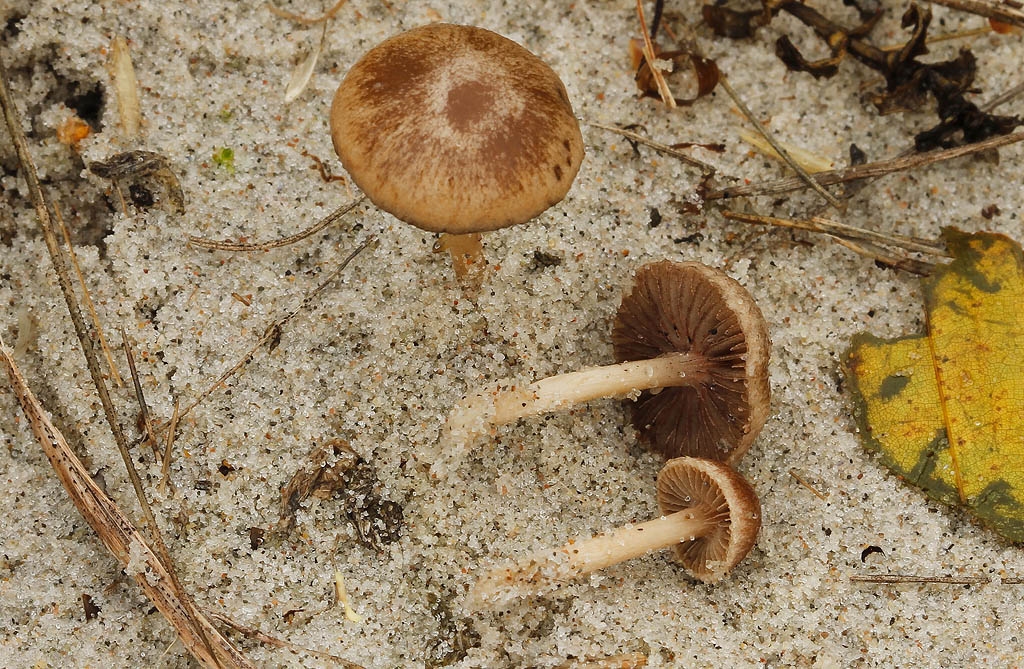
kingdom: Fungi
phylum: Basidiomycota
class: Agaricomycetes
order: Agaricales
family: Psathyrellaceae
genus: Psathyrella
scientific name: Psathyrella ammophila
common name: klit-mørkhat
